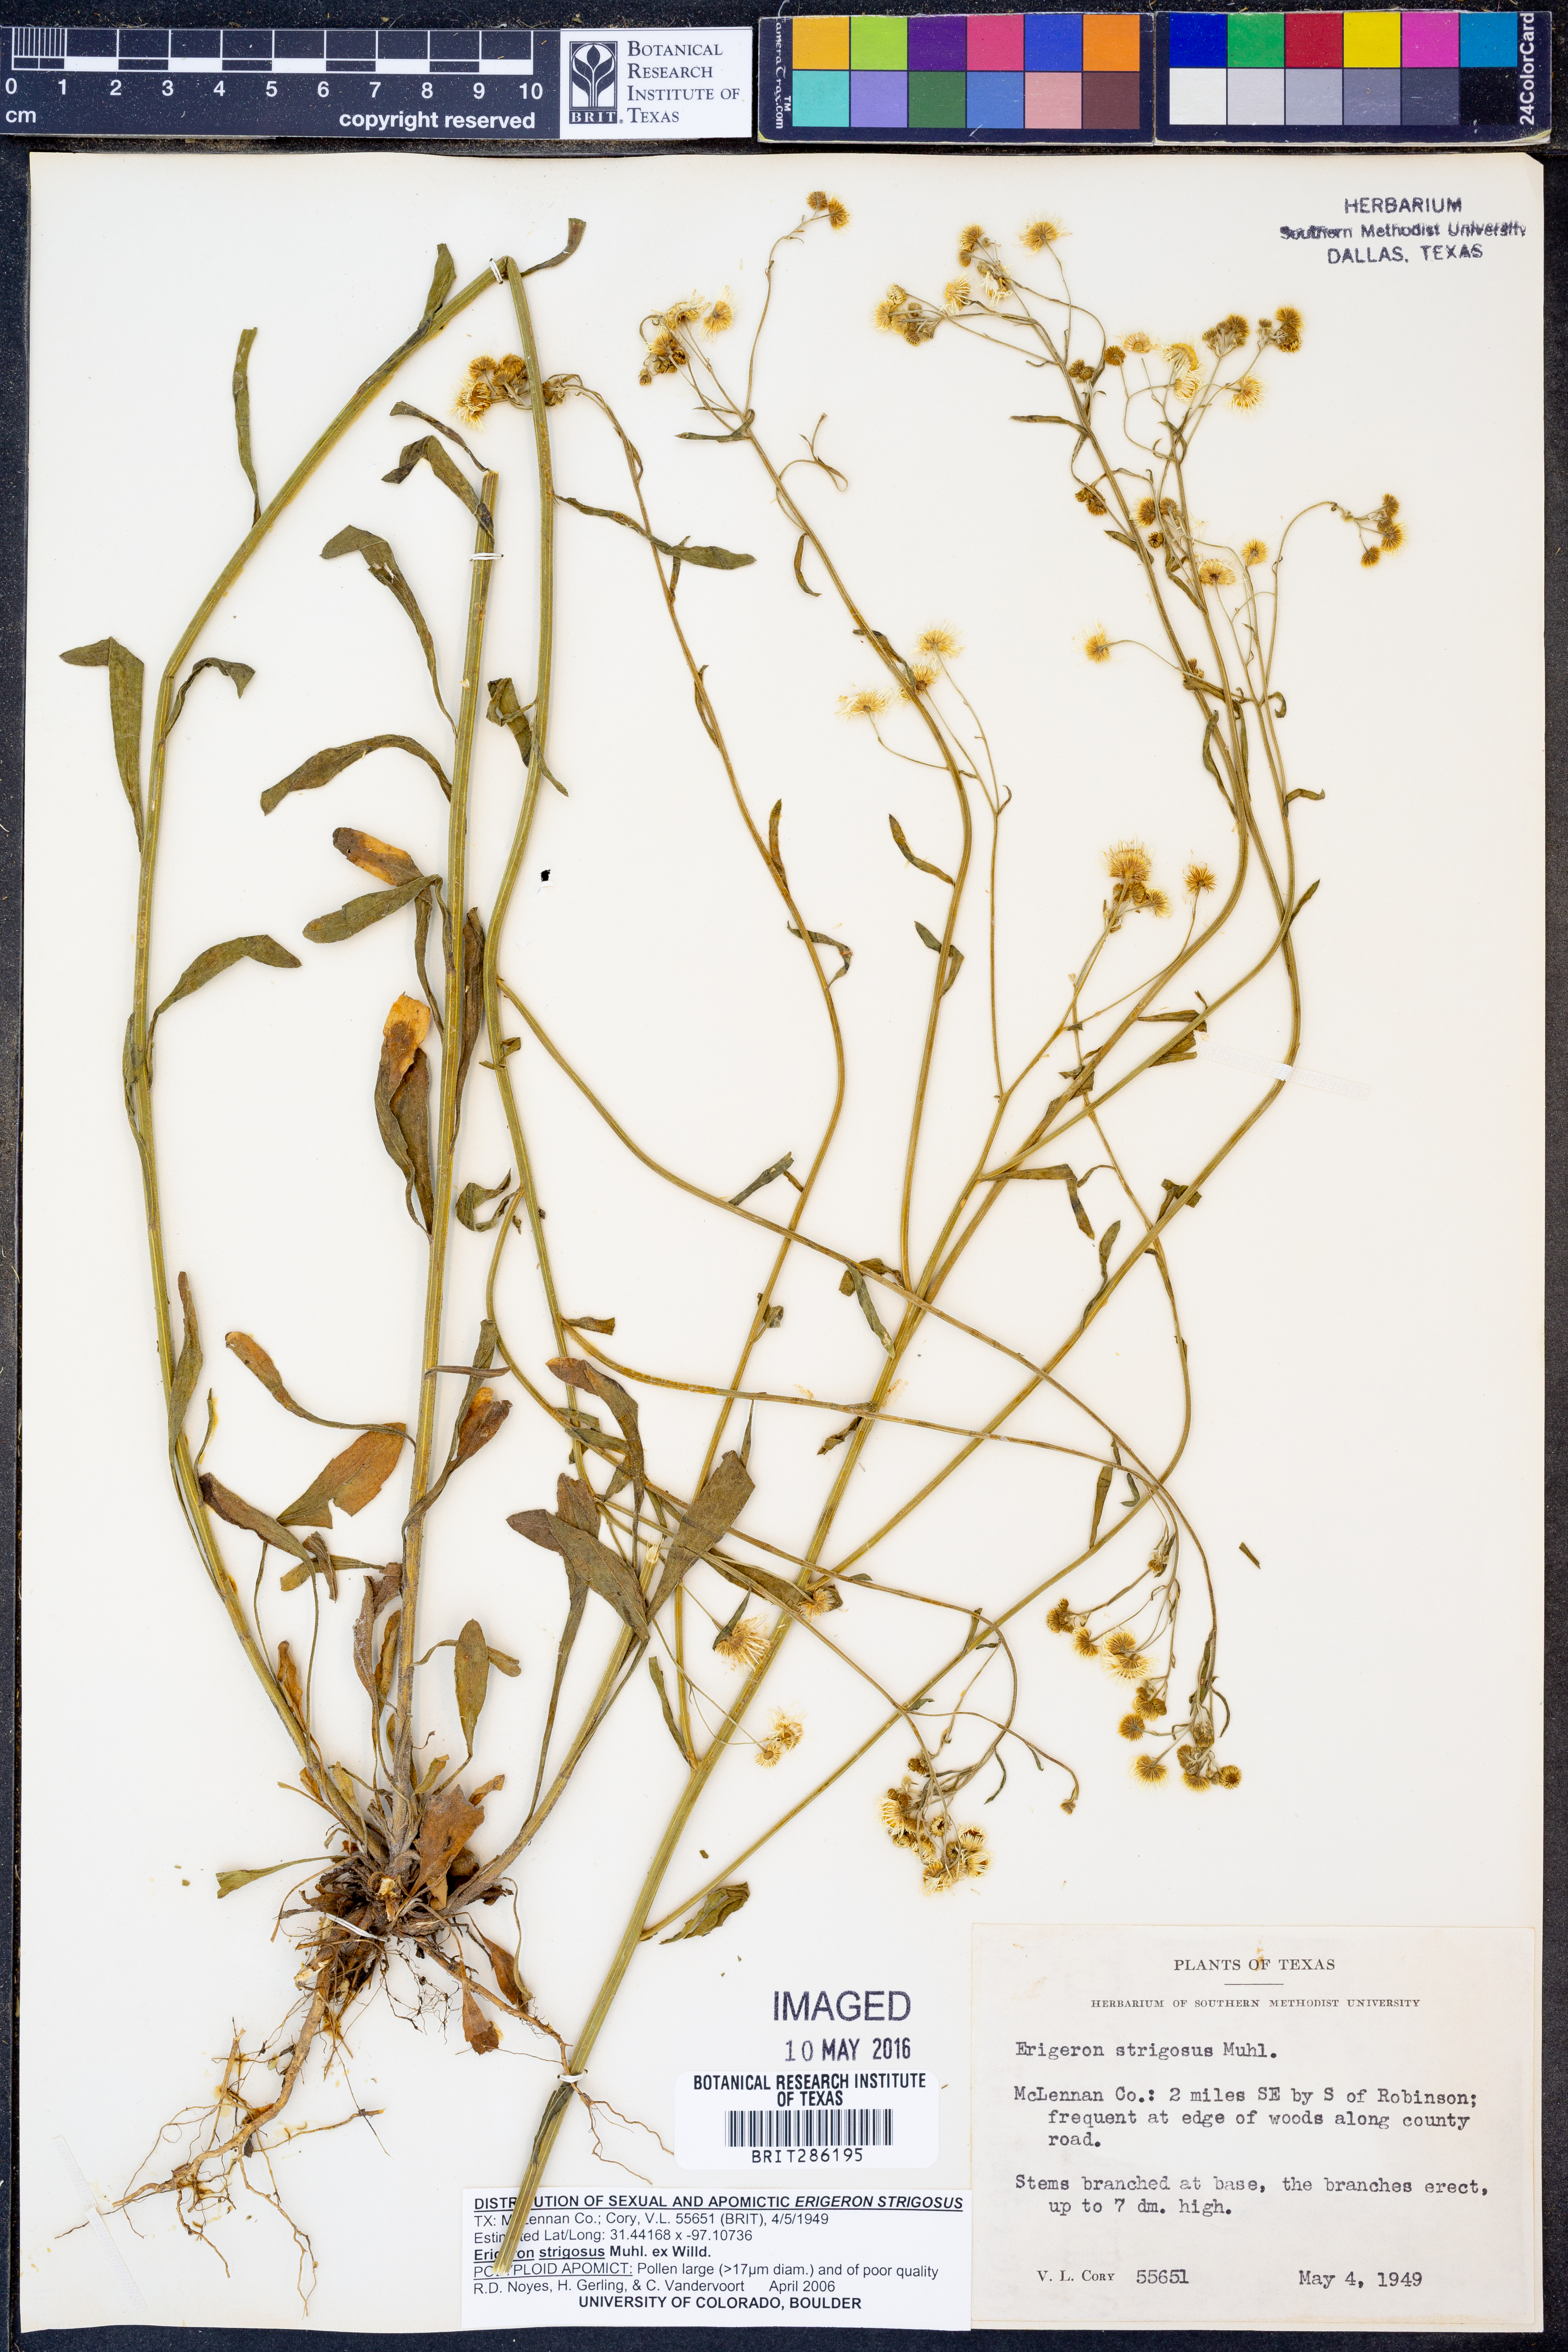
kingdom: Plantae
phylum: Tracheophyta
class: Magnoliopsida
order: Asterales
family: Asteraceae
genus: Erigeron
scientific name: Erigeron strigosus
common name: Common eastern fleabane
